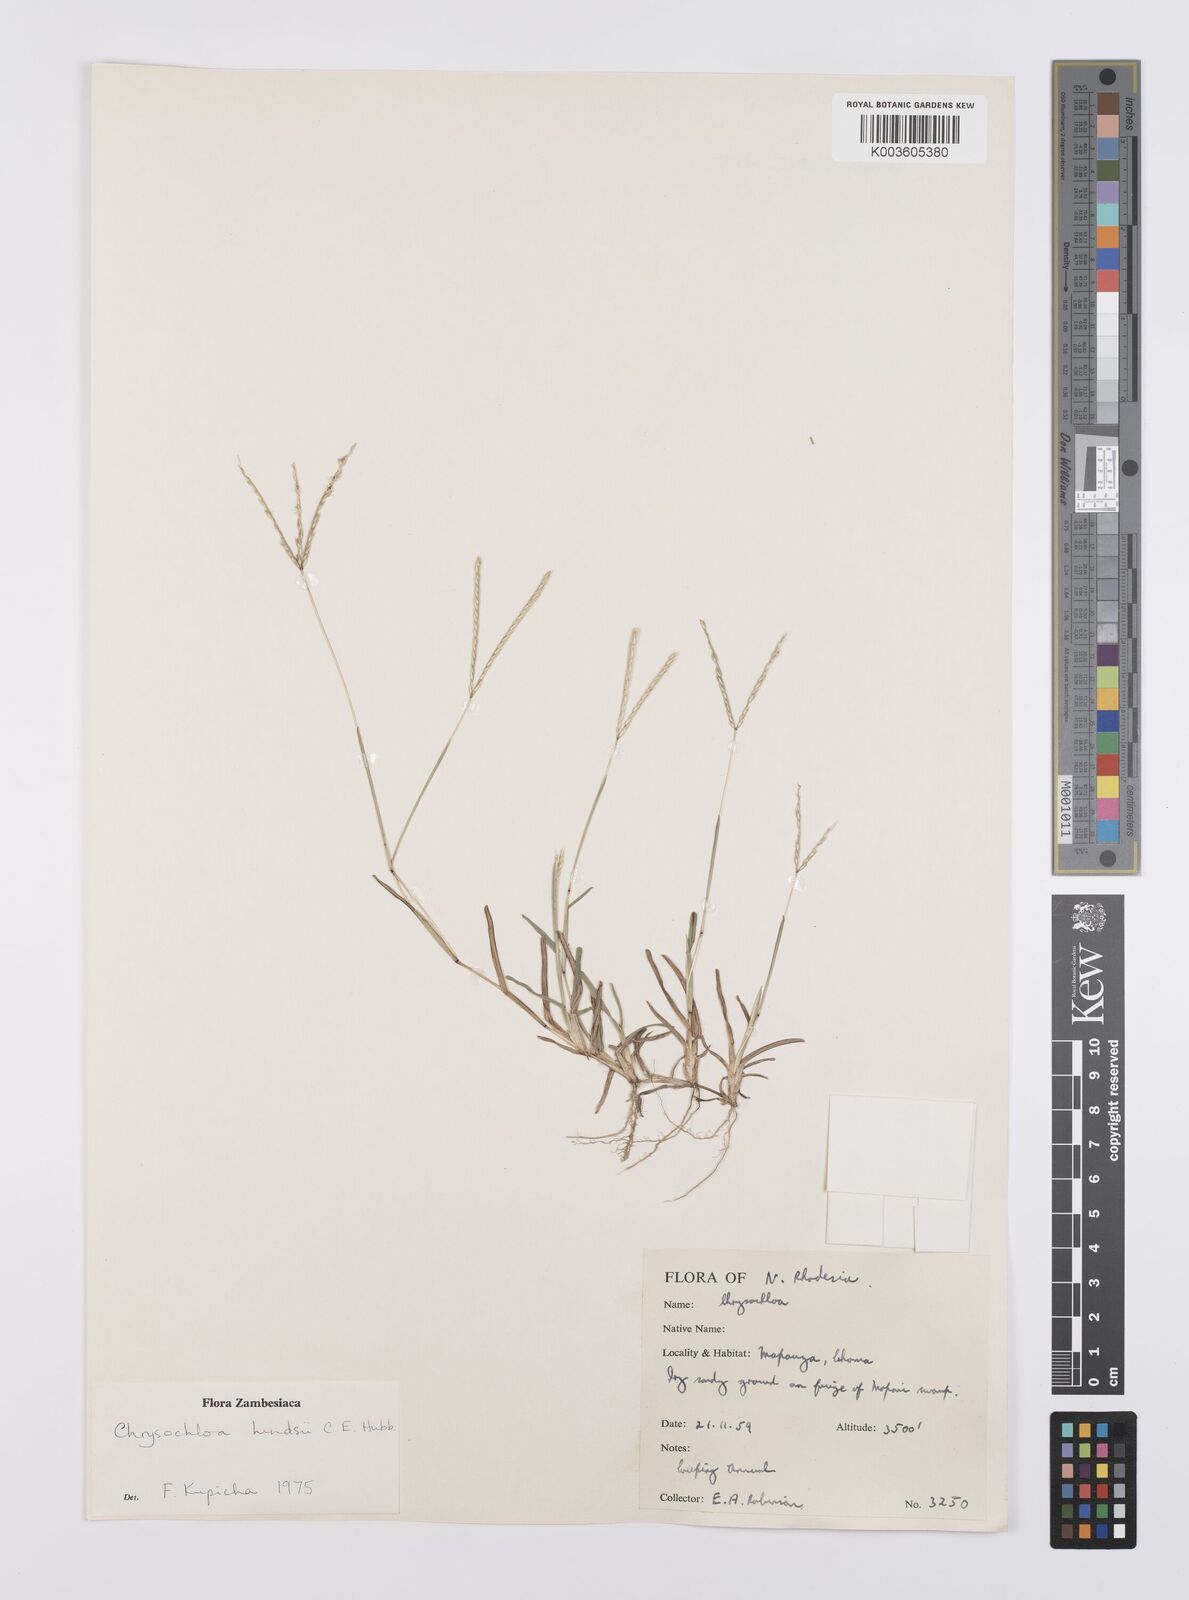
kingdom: Plantae
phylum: Tracheophyta
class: Liliopsida
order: Poales
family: Poaceae
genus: Chrysochloa
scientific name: Chrysochloa hindsii
